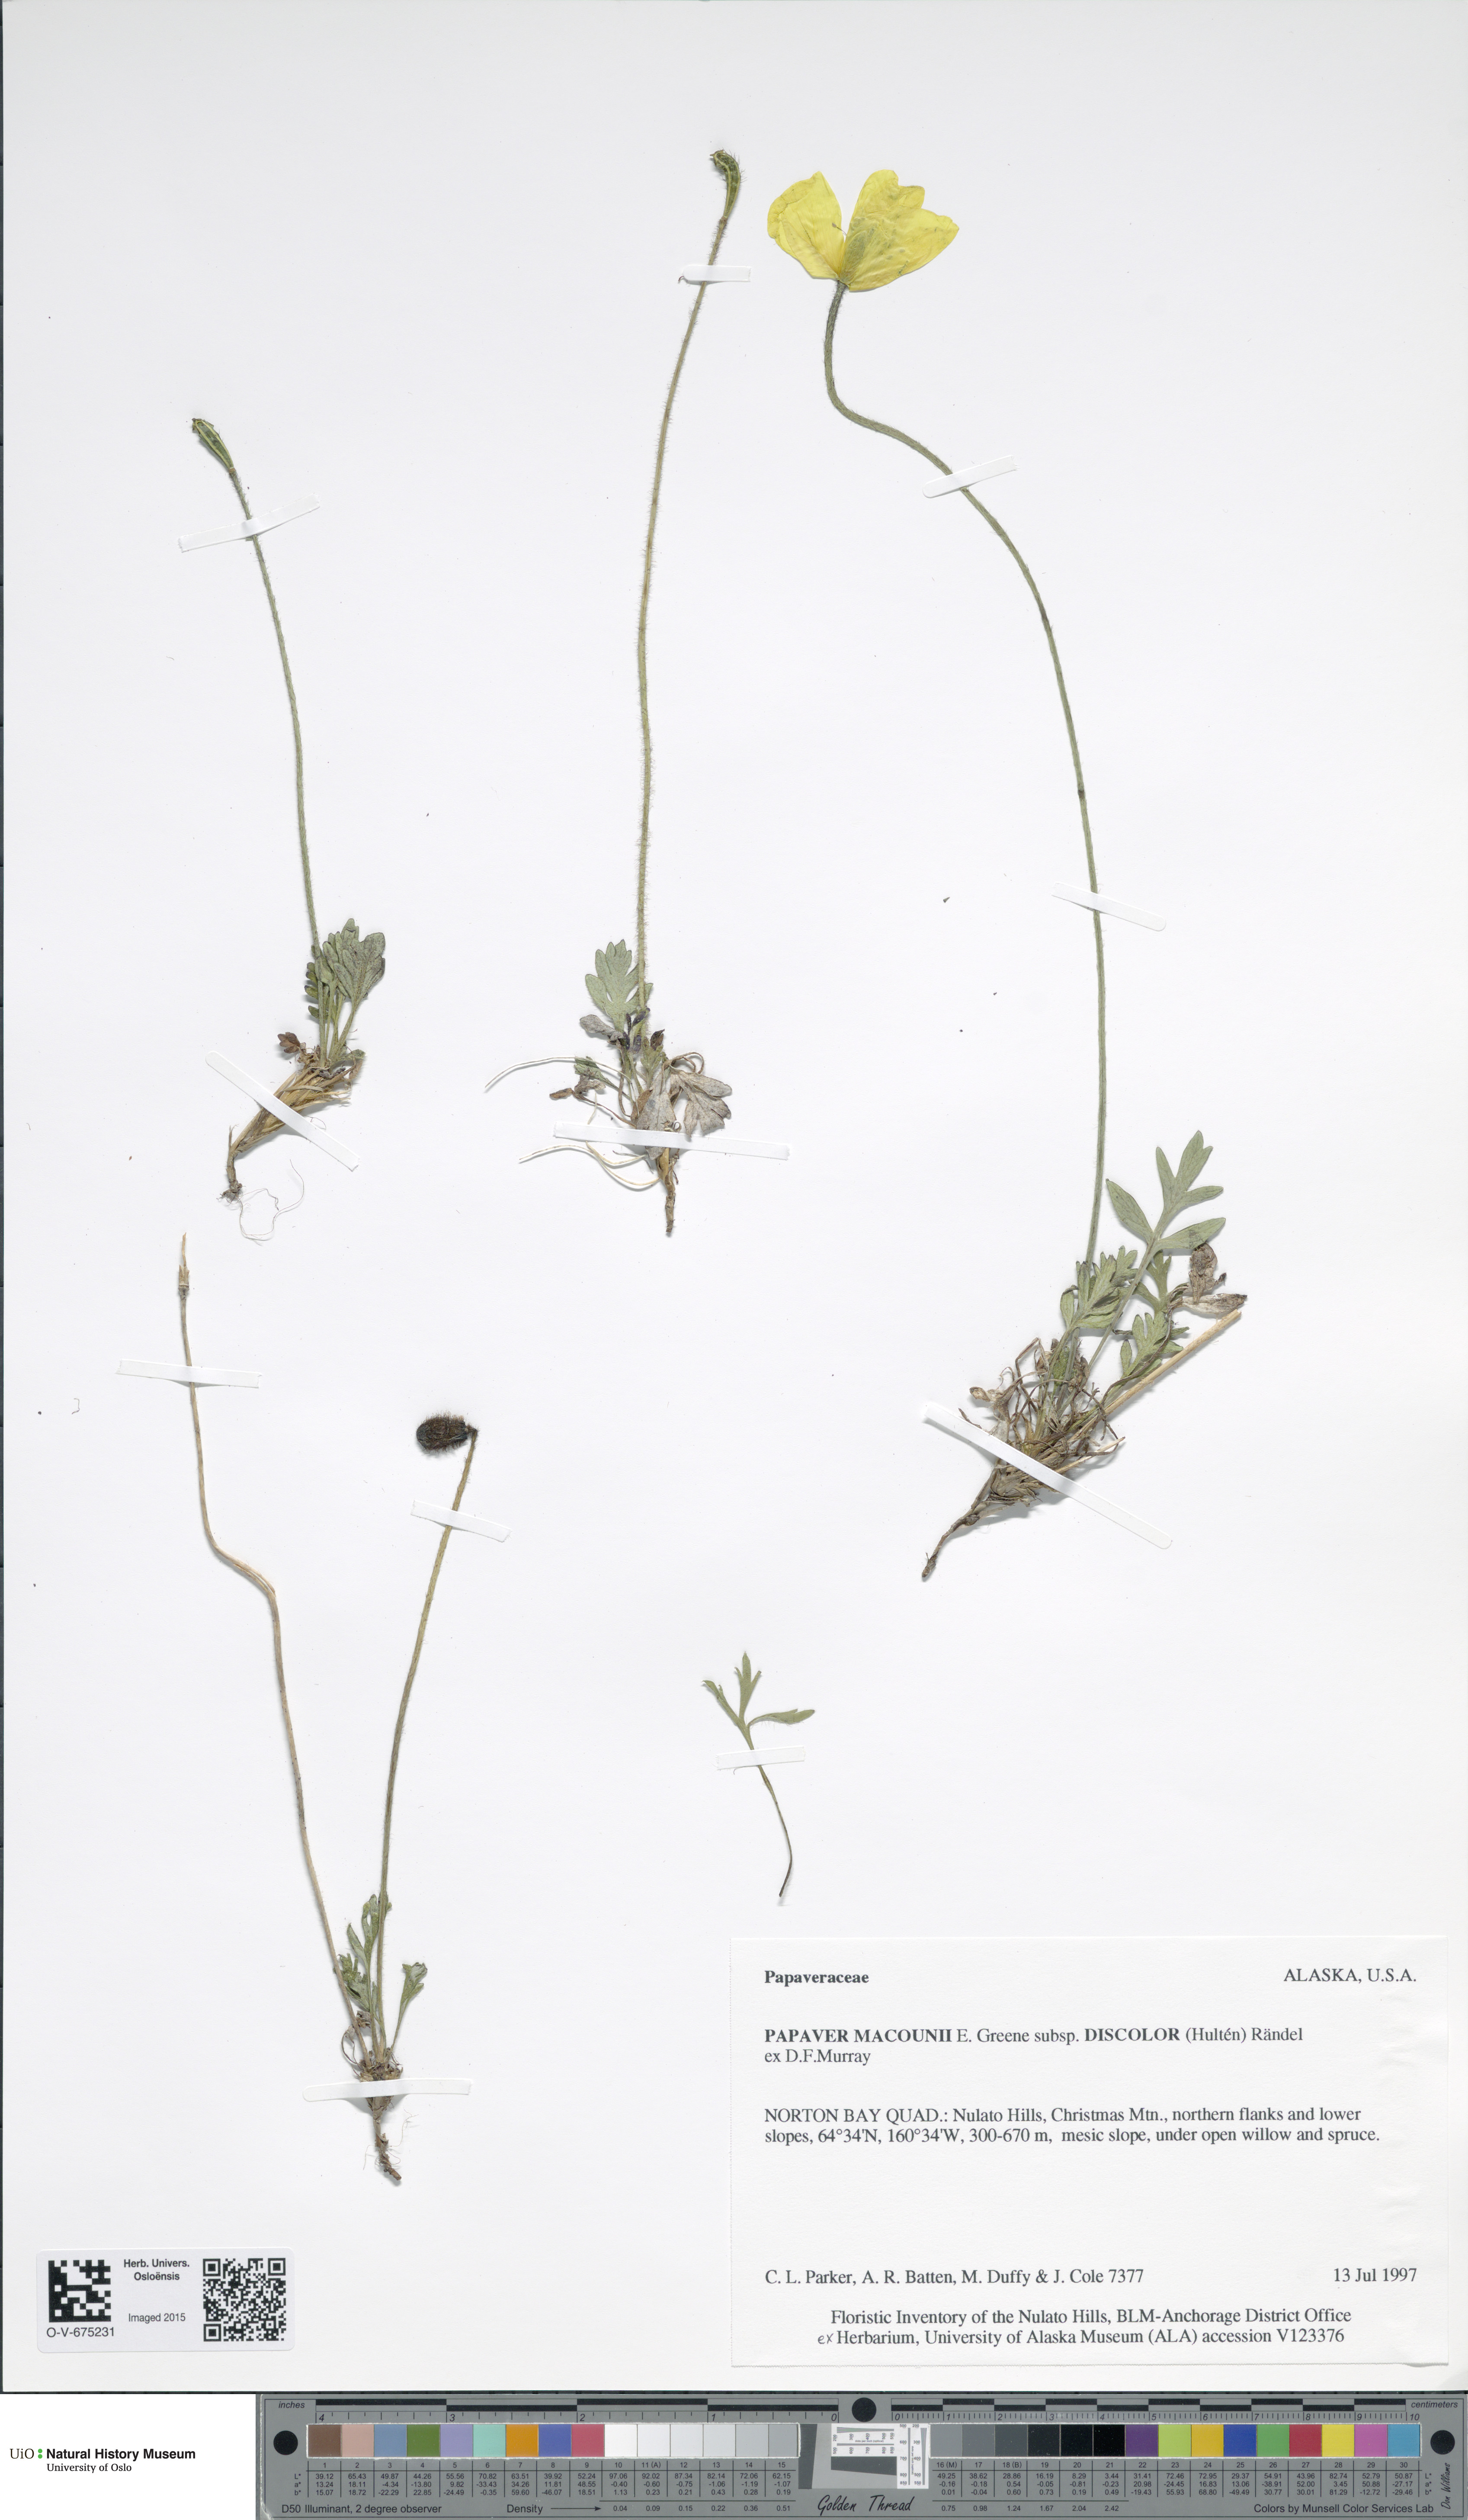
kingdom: Plantae
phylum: Tracheophyta
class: Magnoliopsida
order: Ranunculales
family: Papaveraceae
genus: Papaver
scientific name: Papaver macounii
